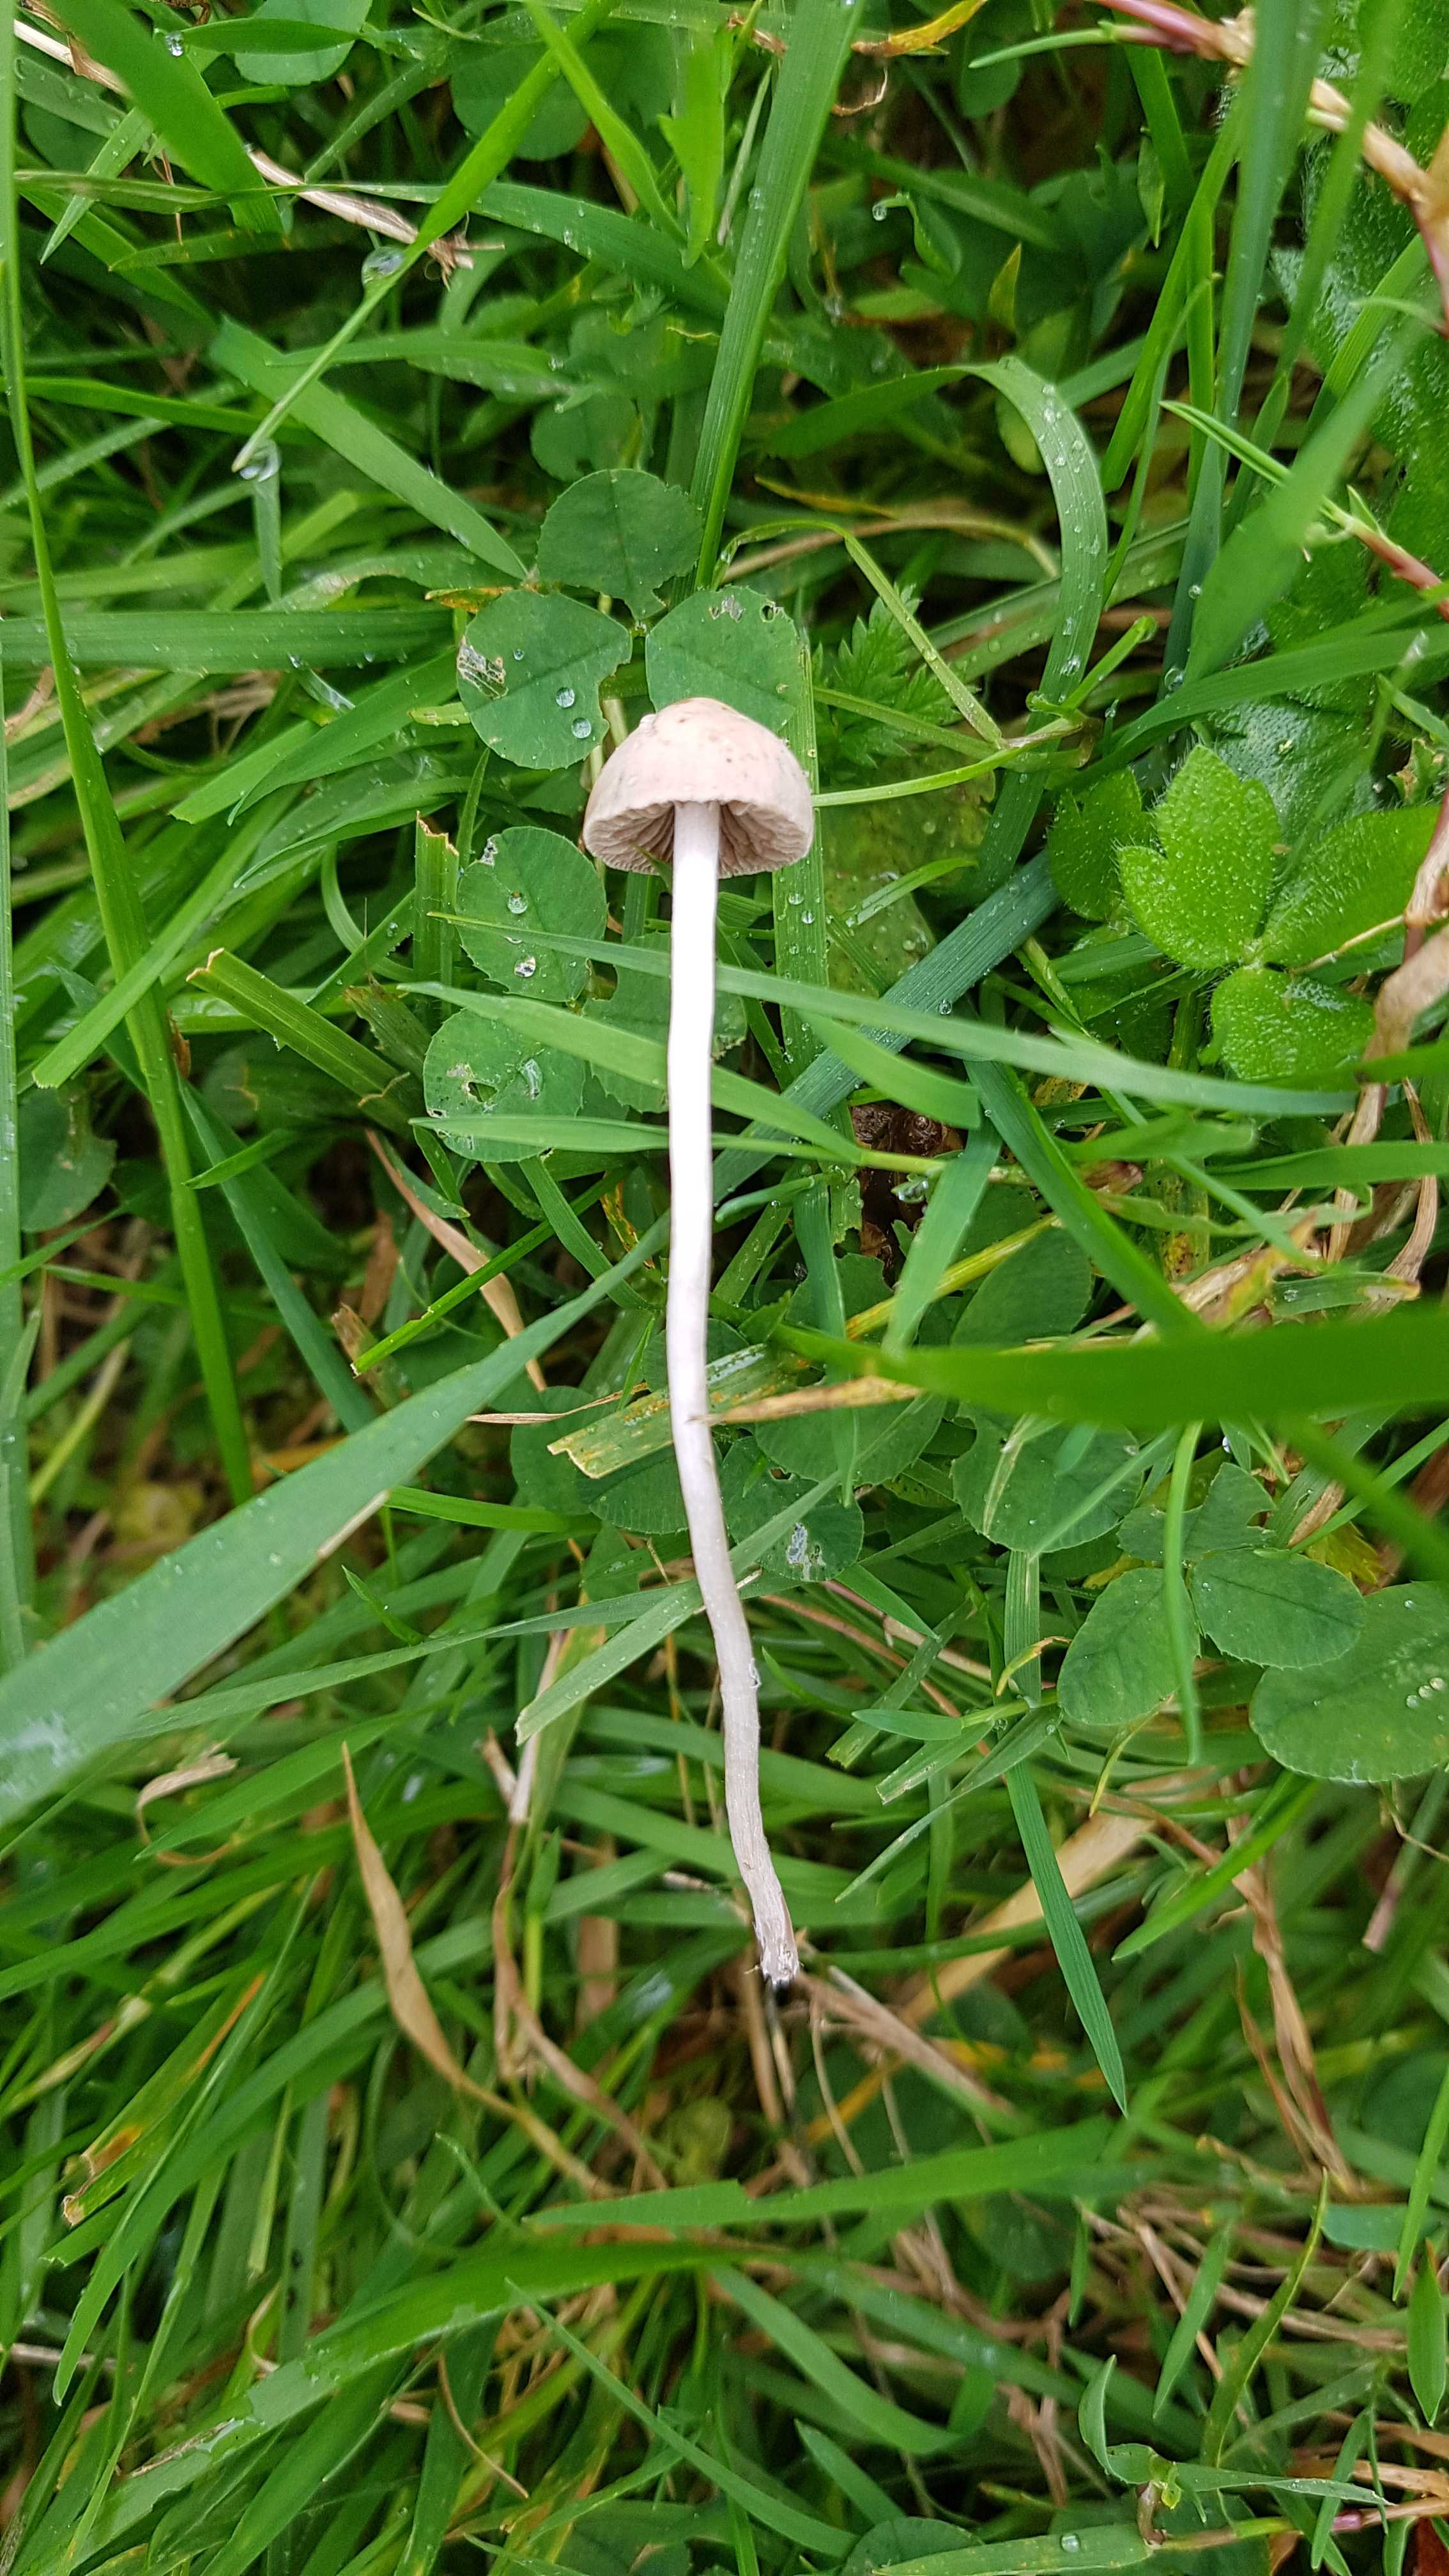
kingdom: Fungi
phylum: Basidiomycota
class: Agaricomycetes
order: Agaricales
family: Bolbitiaceae
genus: Panaeolina
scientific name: Panaeolina foenisecii
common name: høslætsvamp
